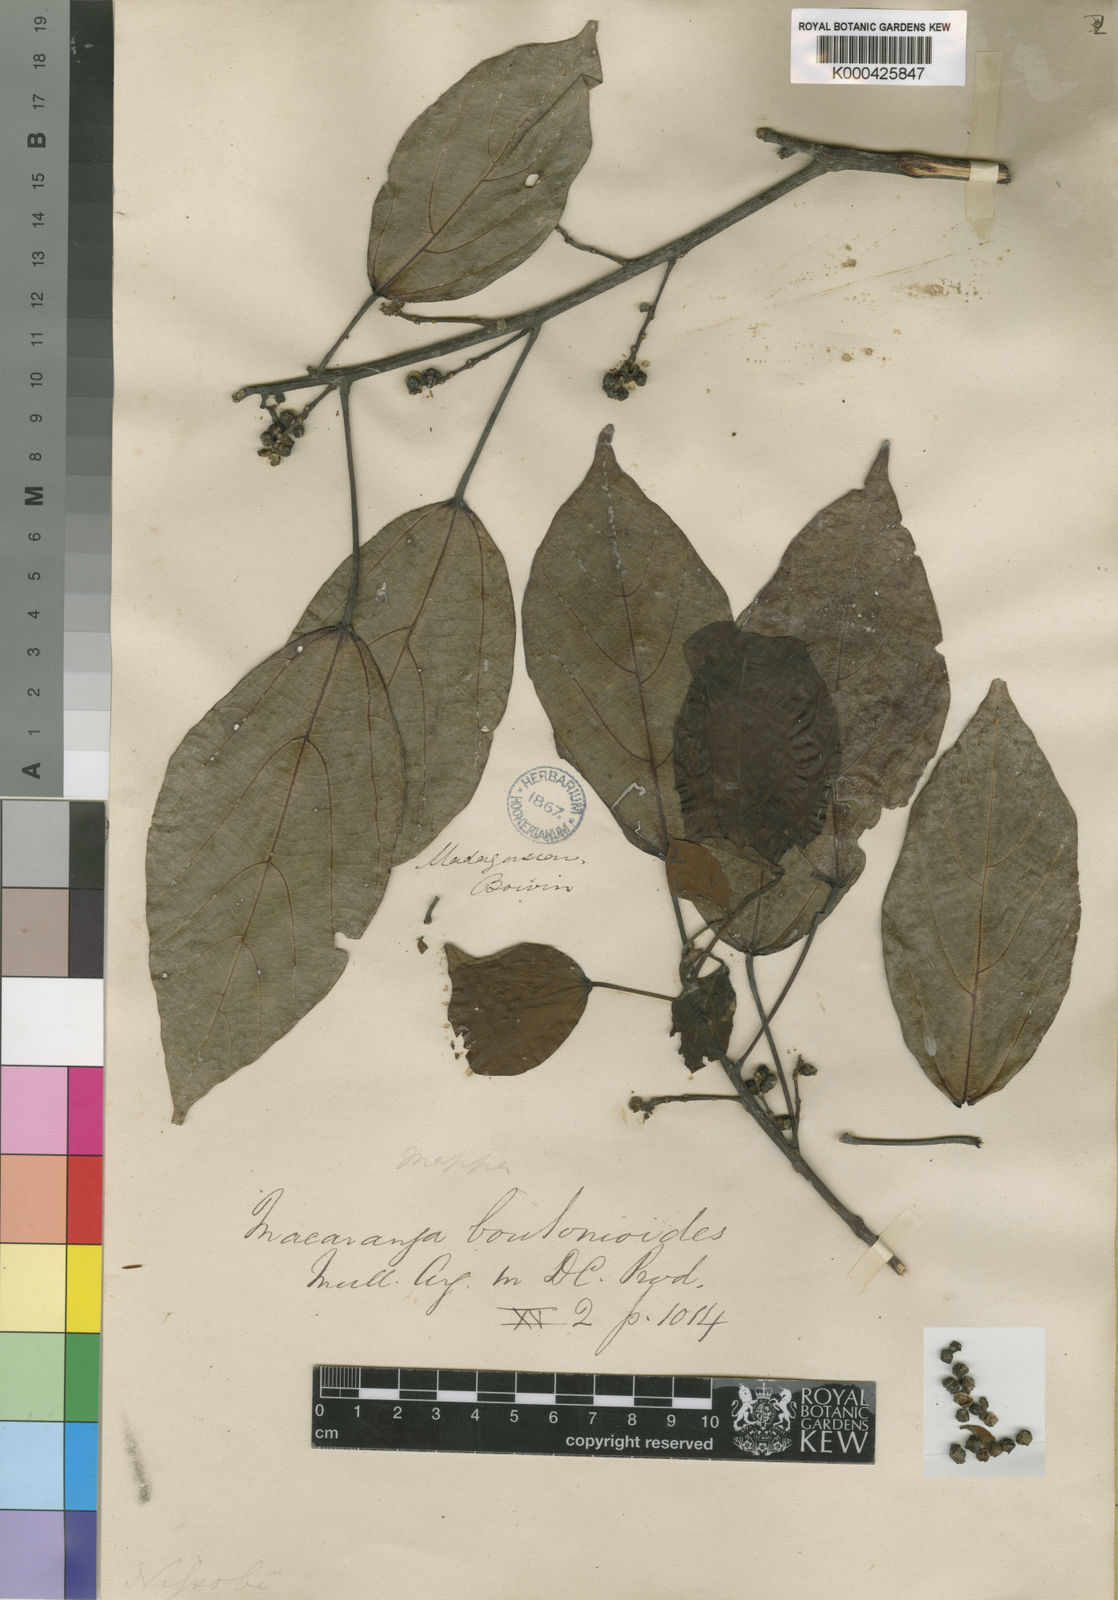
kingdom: Plantae
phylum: Tracheophyta
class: Magnoliopsida
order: Malpighiales
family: Euphorbiaceae
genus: Macaranga
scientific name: Macaranga
